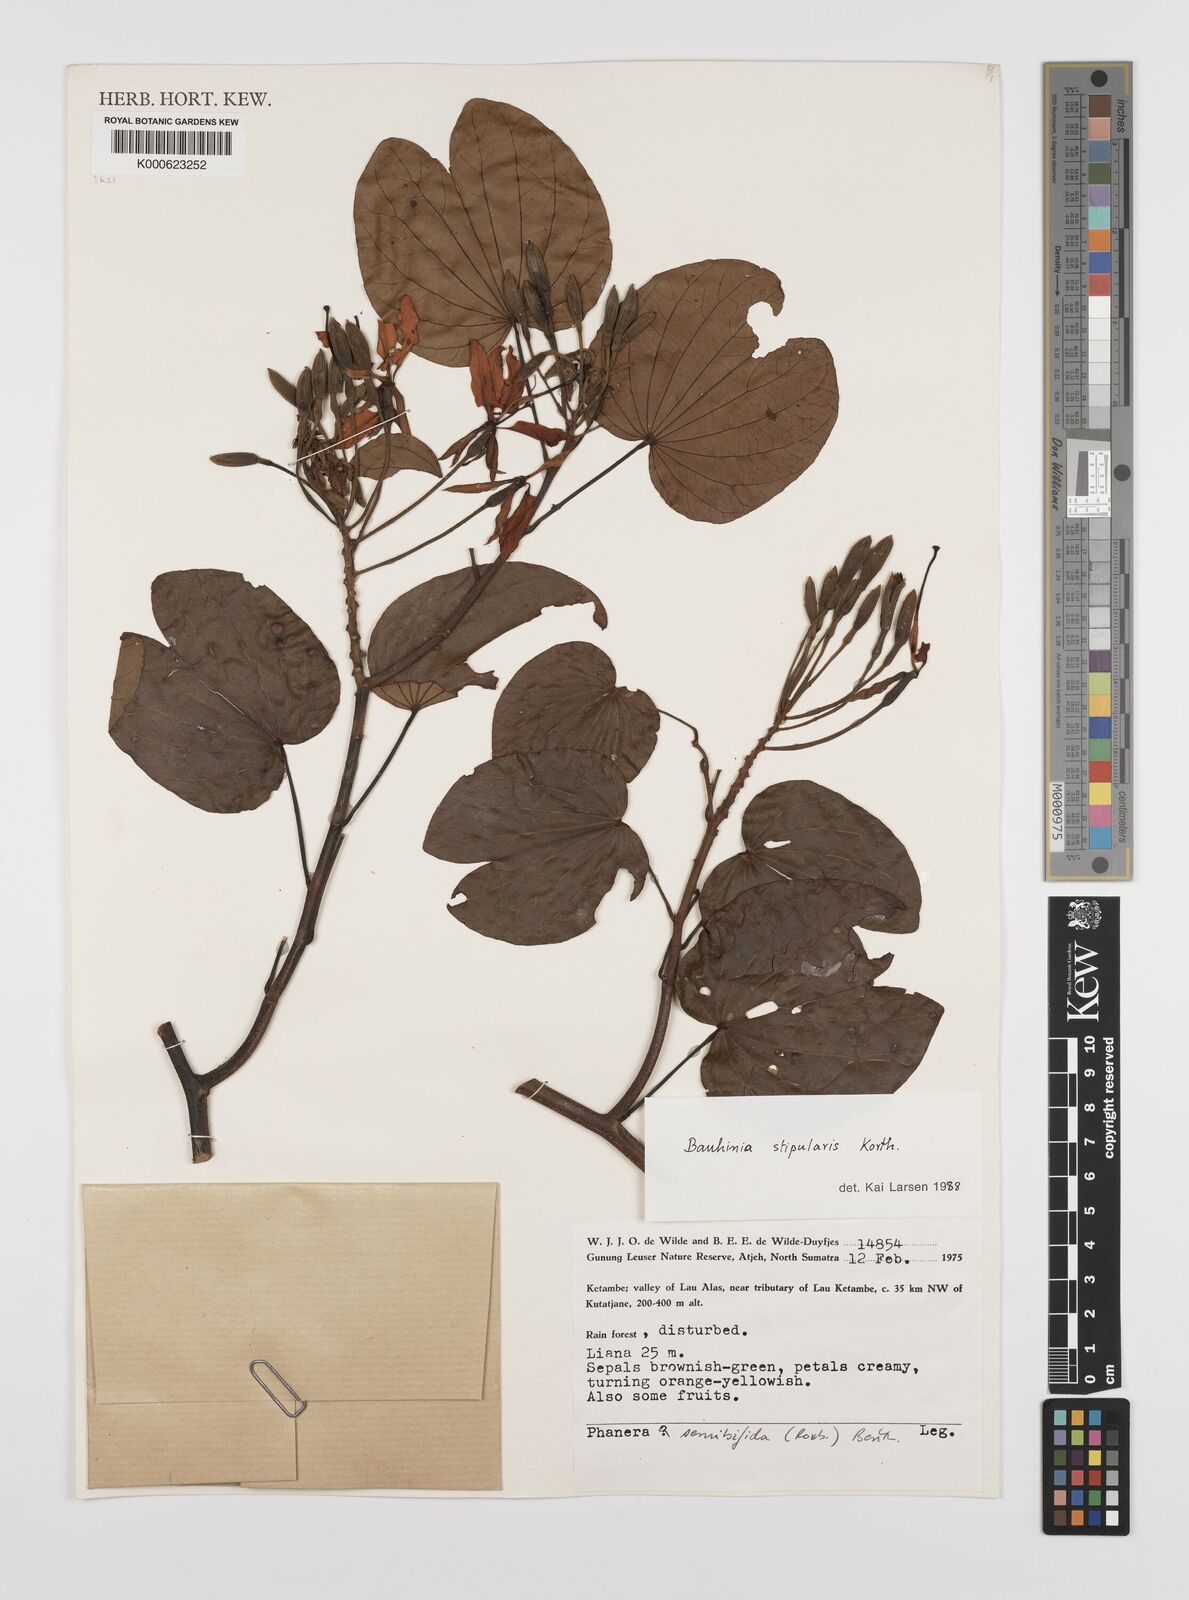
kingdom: Plantae
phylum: Tracheophyta
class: Magnoliopsida
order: Fabales
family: Fabaceae
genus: Phanera
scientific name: Phanera stipularis
